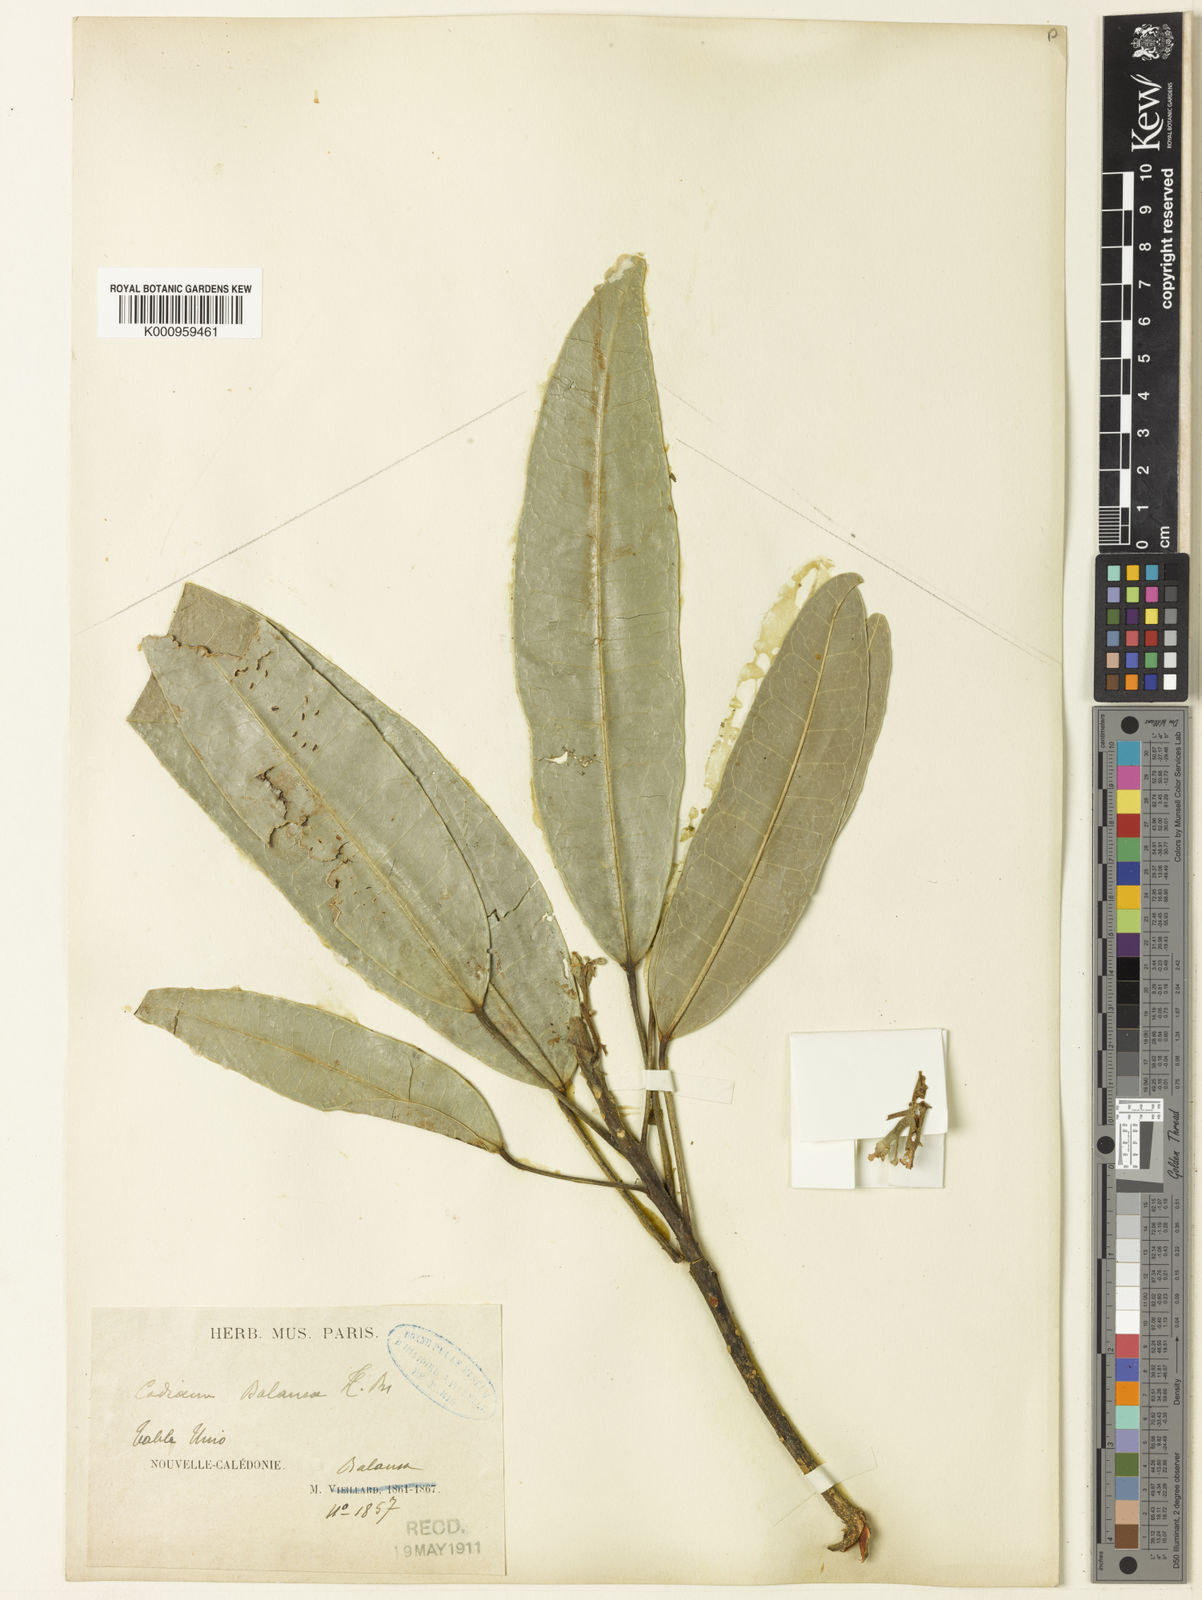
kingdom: Plantae
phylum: Tracheophyta
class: Magnoliopsida
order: Malpighiales
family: Euphorbiaceae
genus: Baloghia
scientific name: Baloghia balansae
